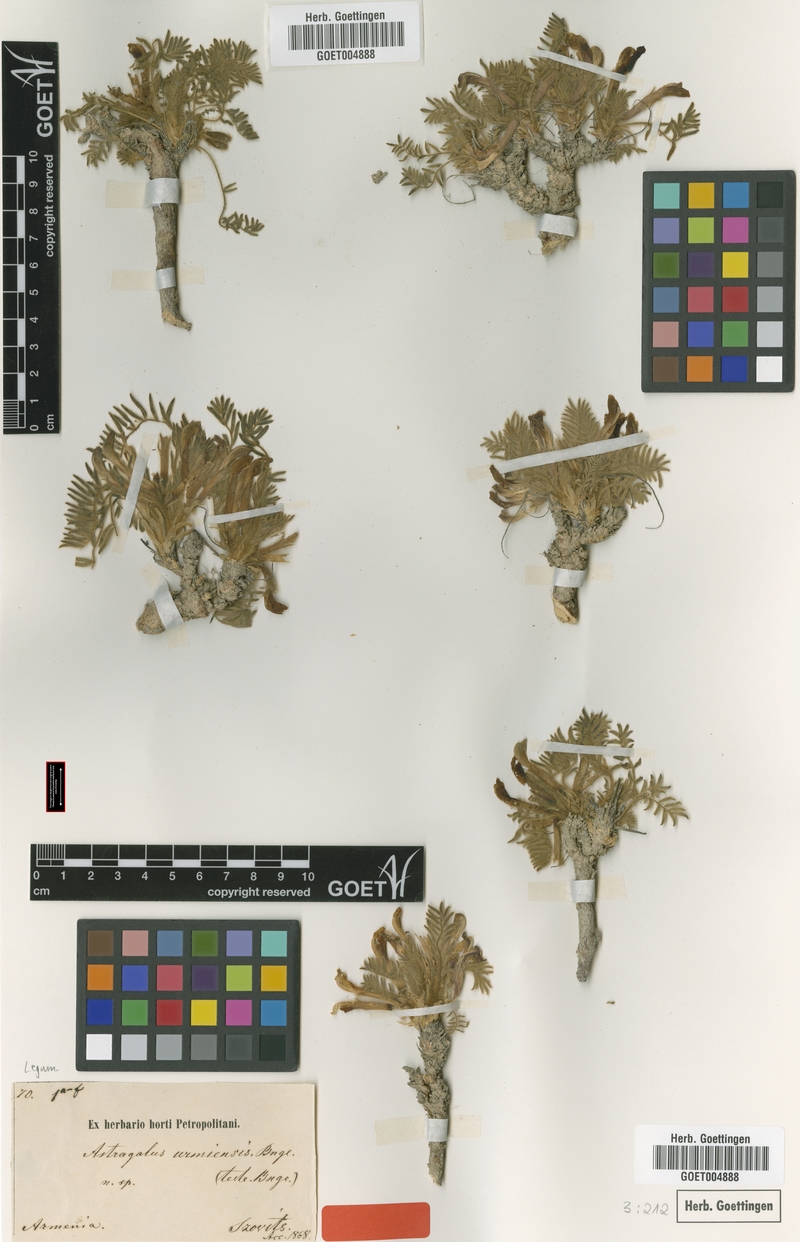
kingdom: Plantae
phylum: Tracheophyta
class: Magnoliopsida
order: Fabales
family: Fabaceae
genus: Astragalus
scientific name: Astragalus urmiensis
